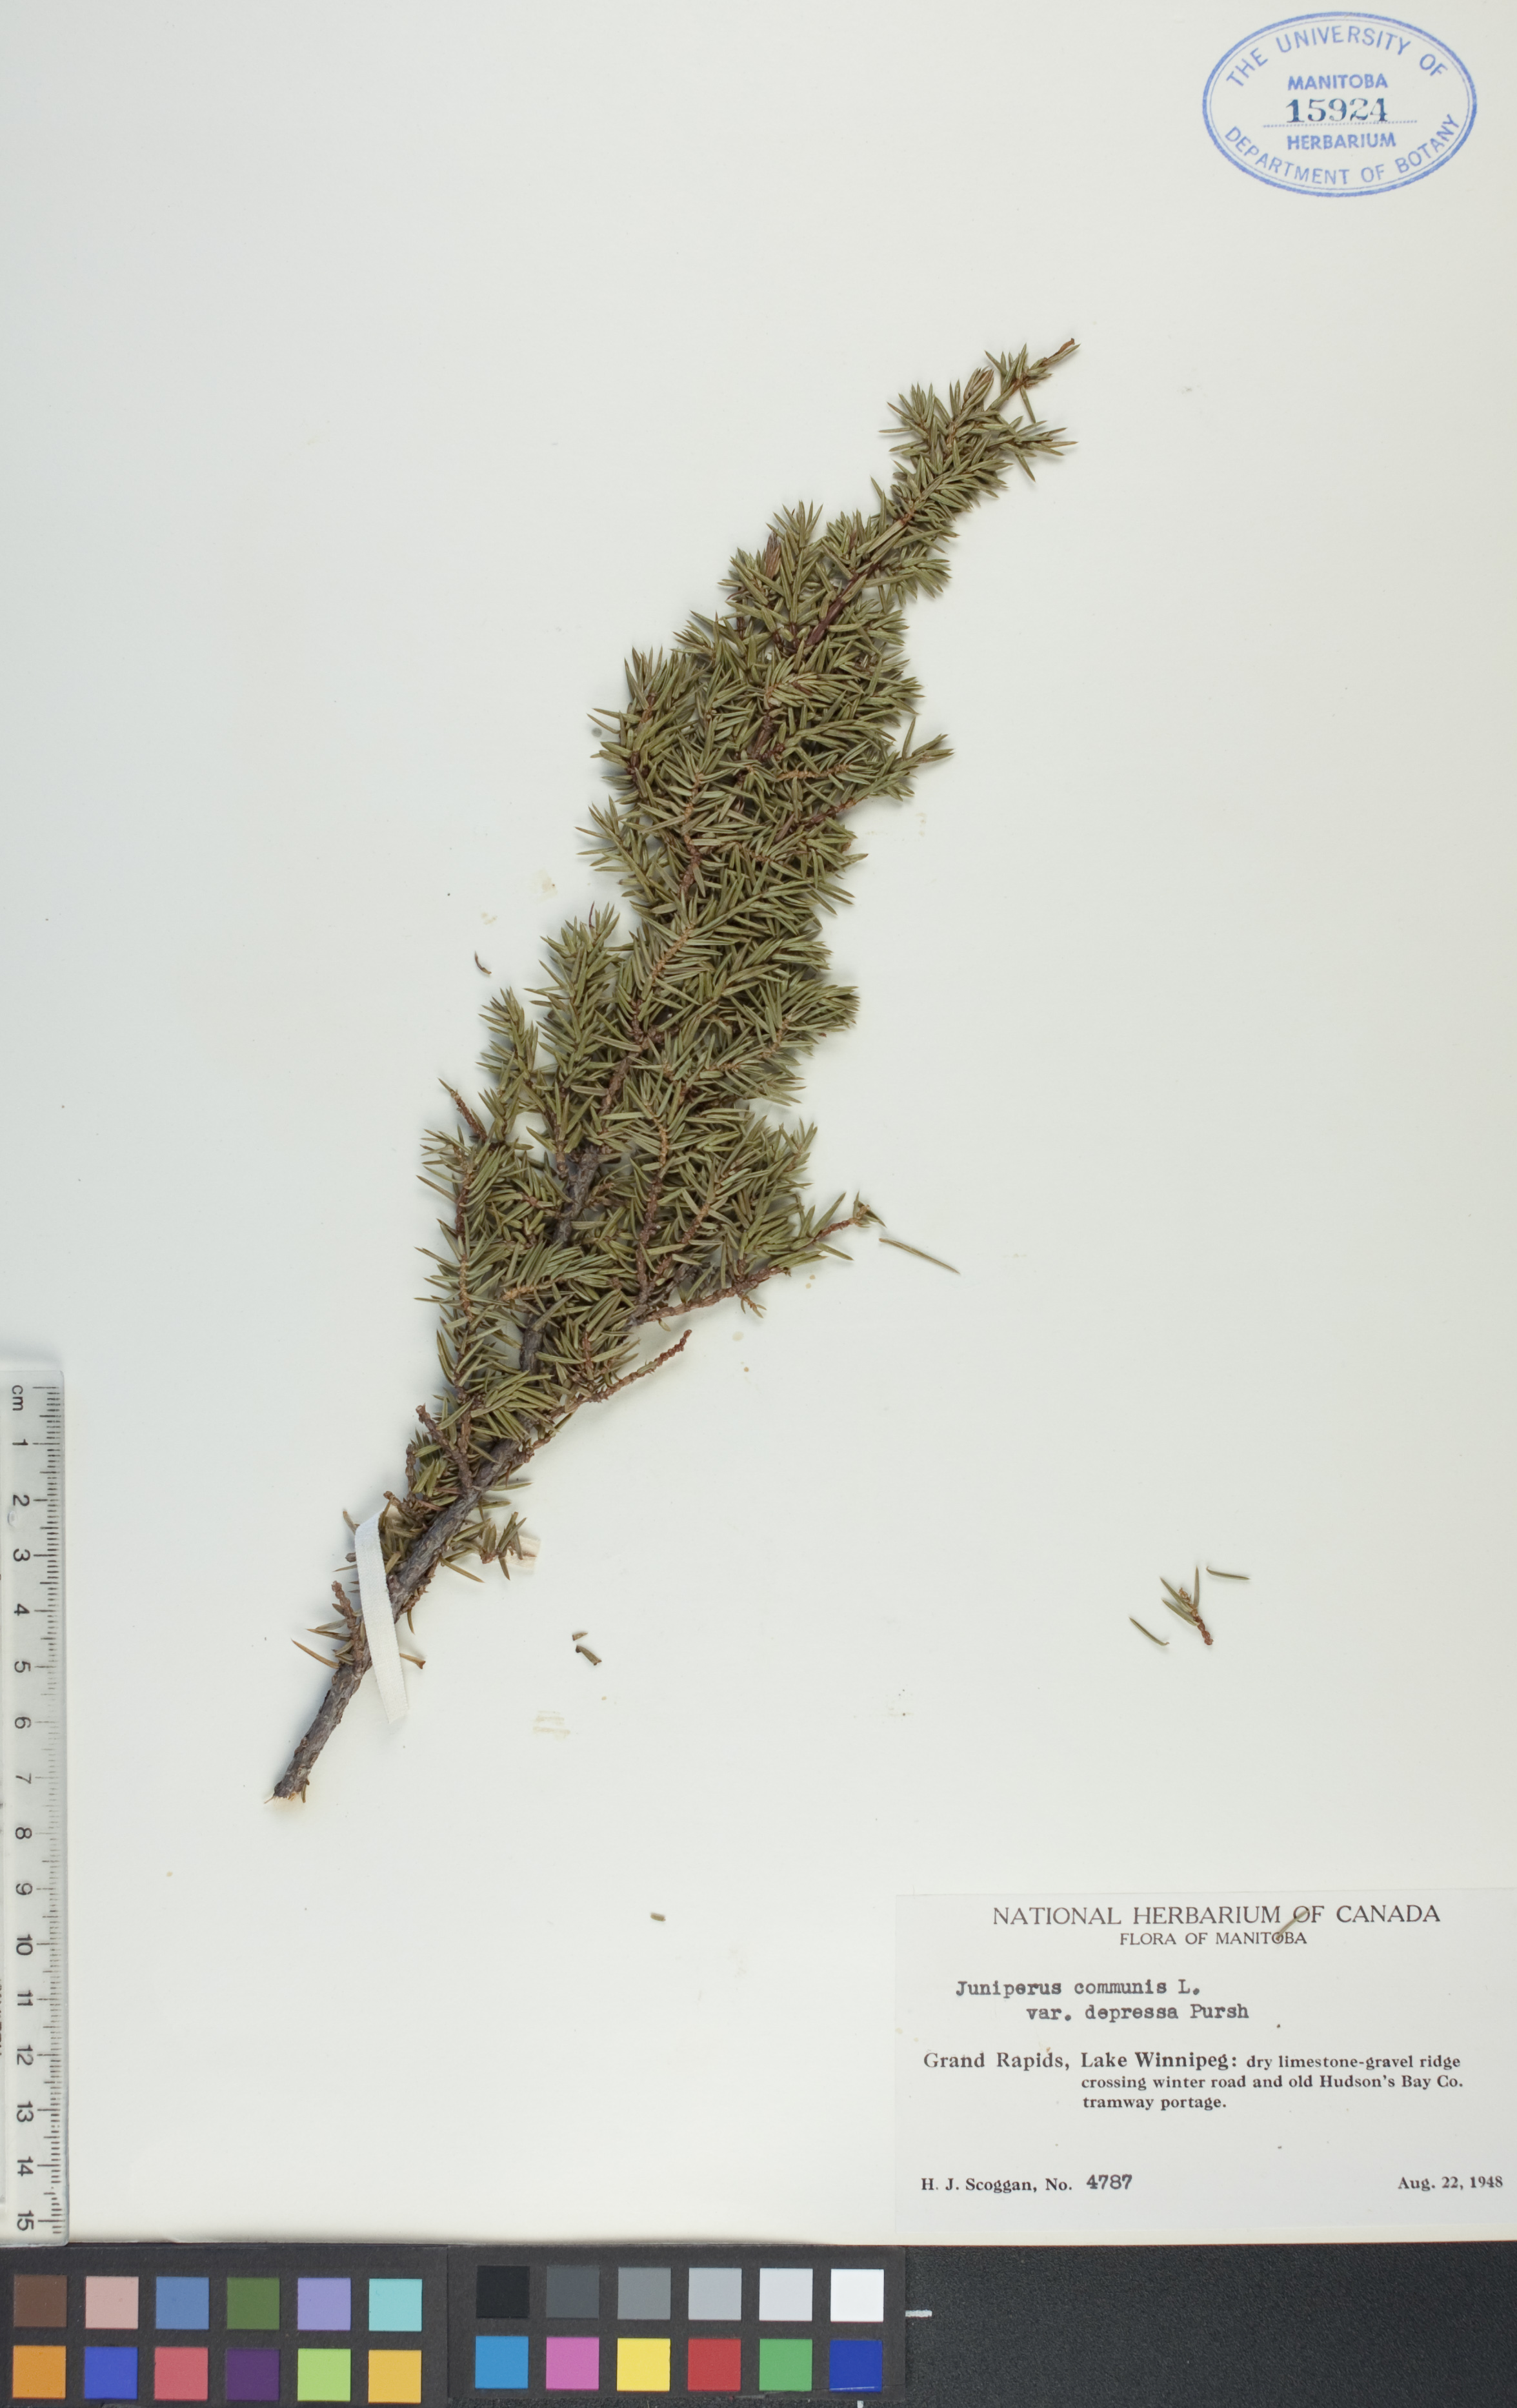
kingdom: Plantae
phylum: Tracheophyta
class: Pinopsida
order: Pinales
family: Cupressaceae
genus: Juniperus
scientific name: Juniperus communis
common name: Common juniper
